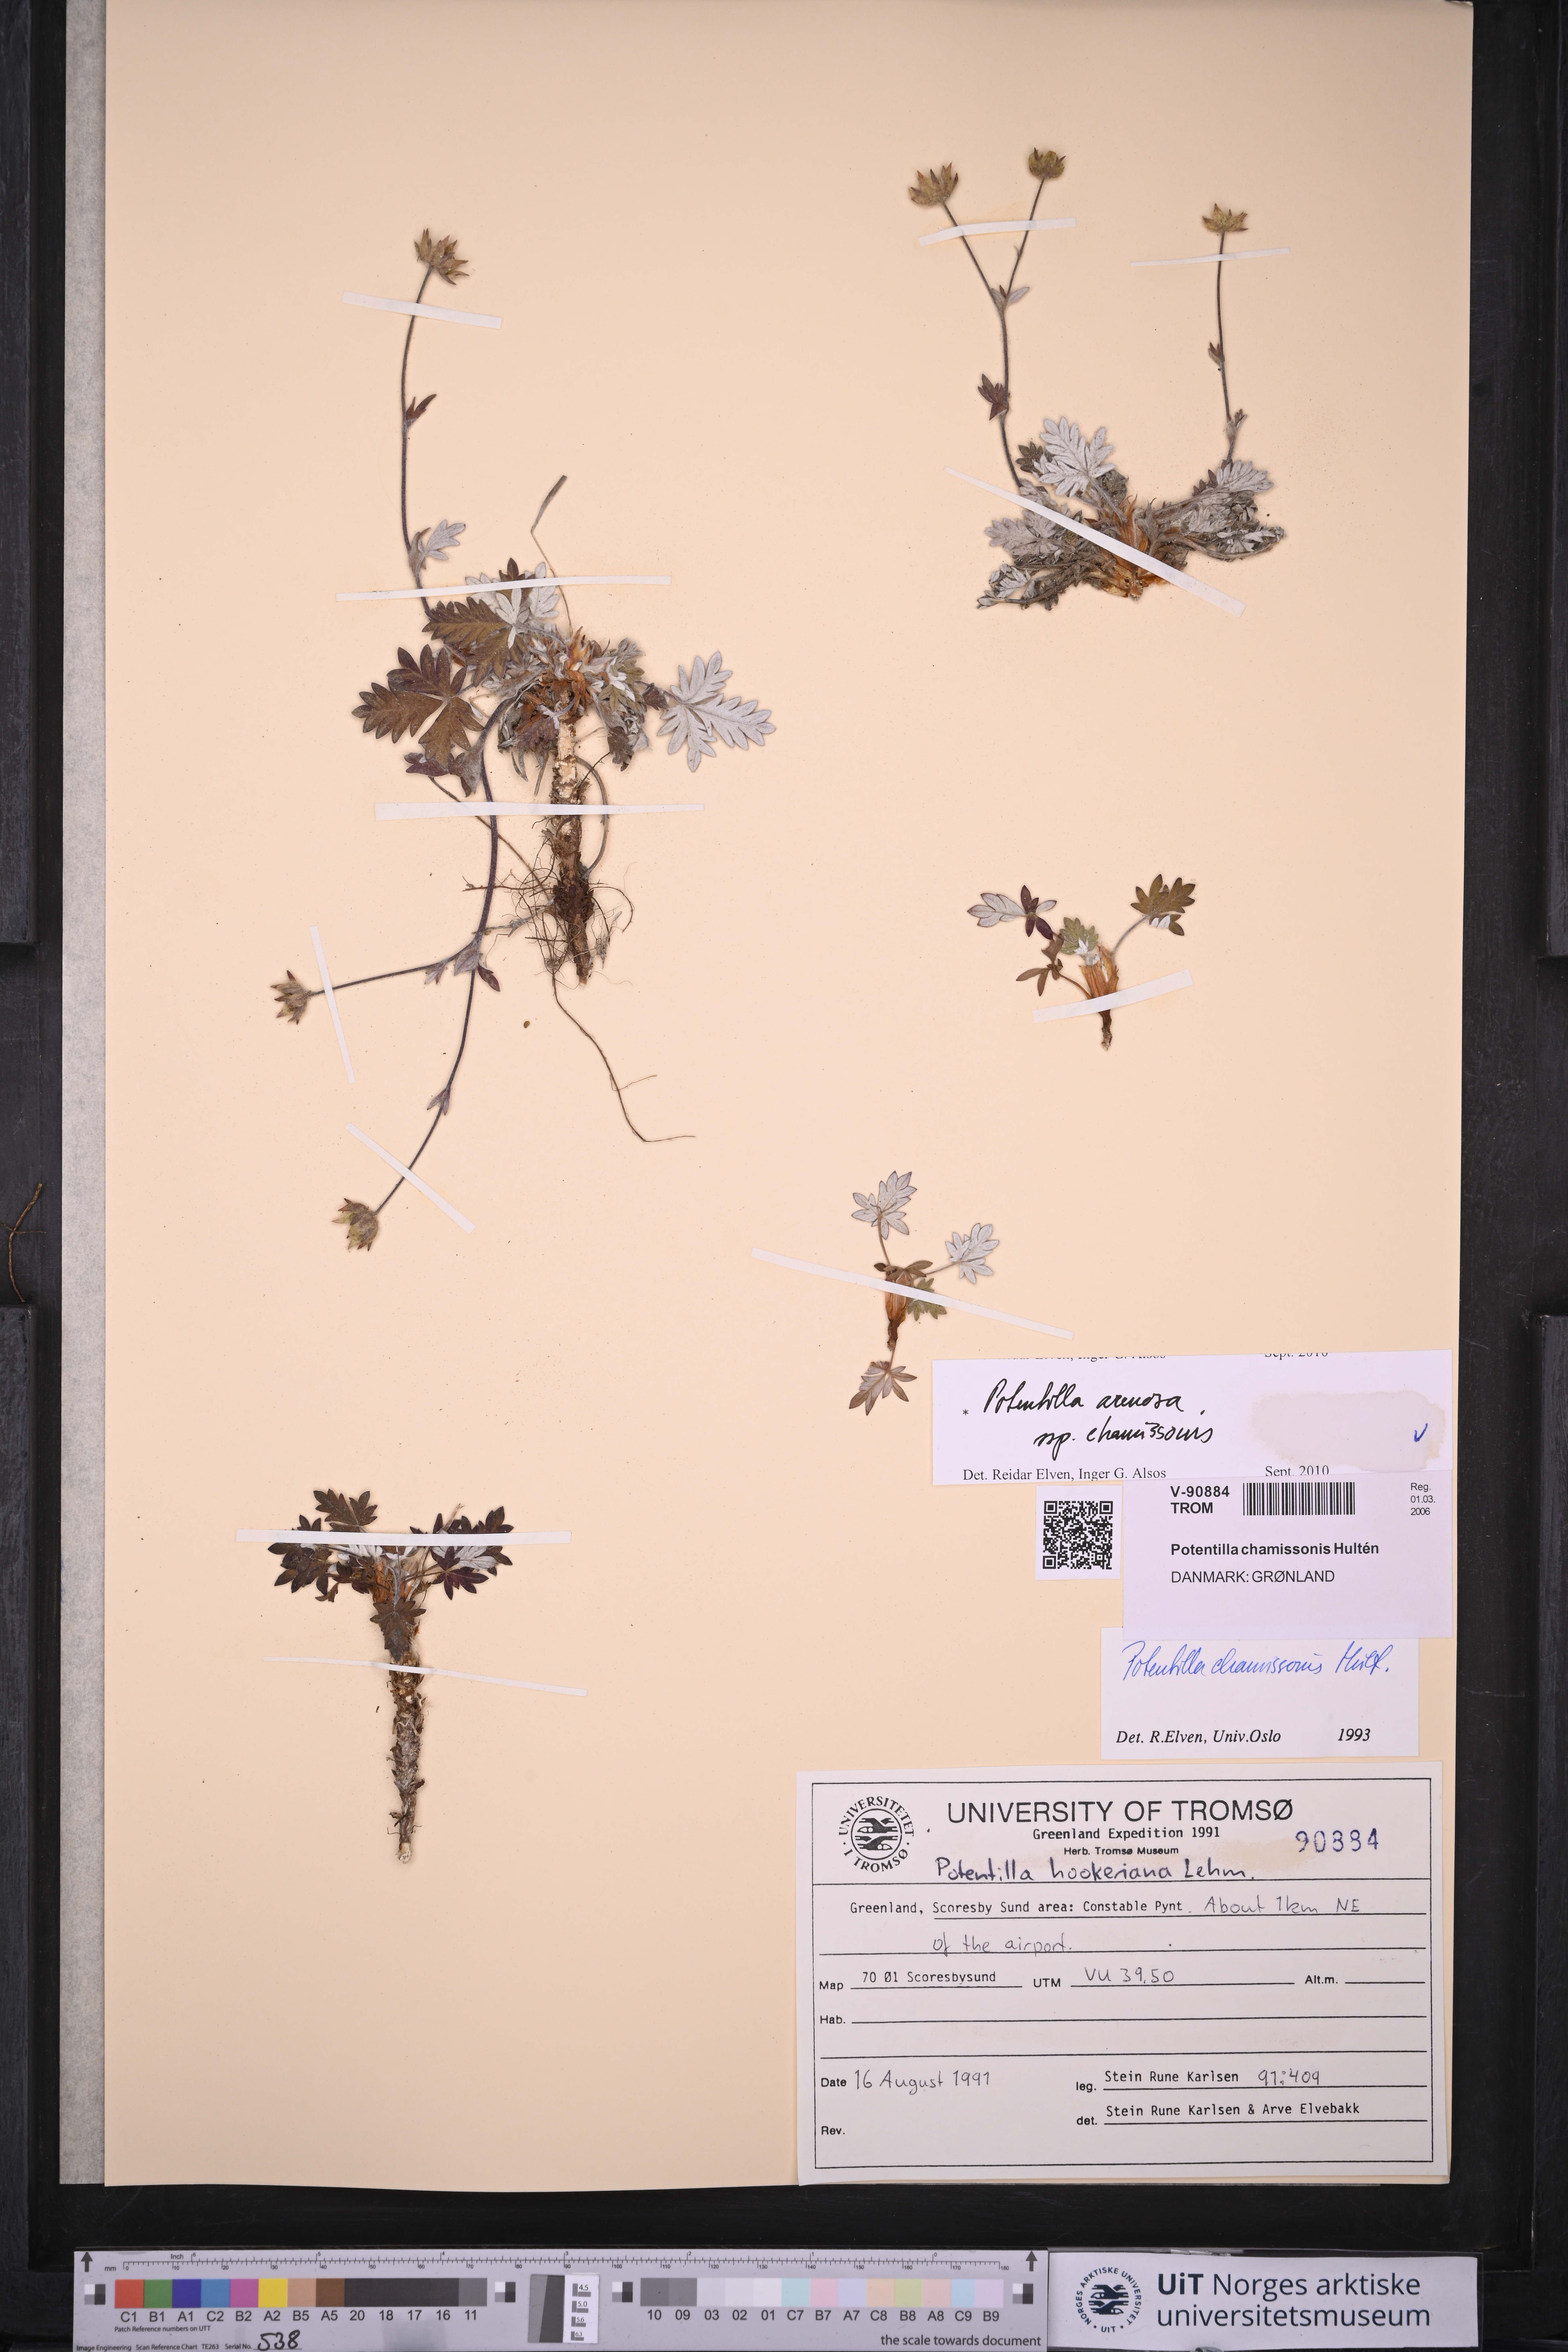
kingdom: Plantae
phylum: Tracheophyta
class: Magnoliopsida
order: Rosales
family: Rosaceae
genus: Potentilla
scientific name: Potentilla chamissonis
